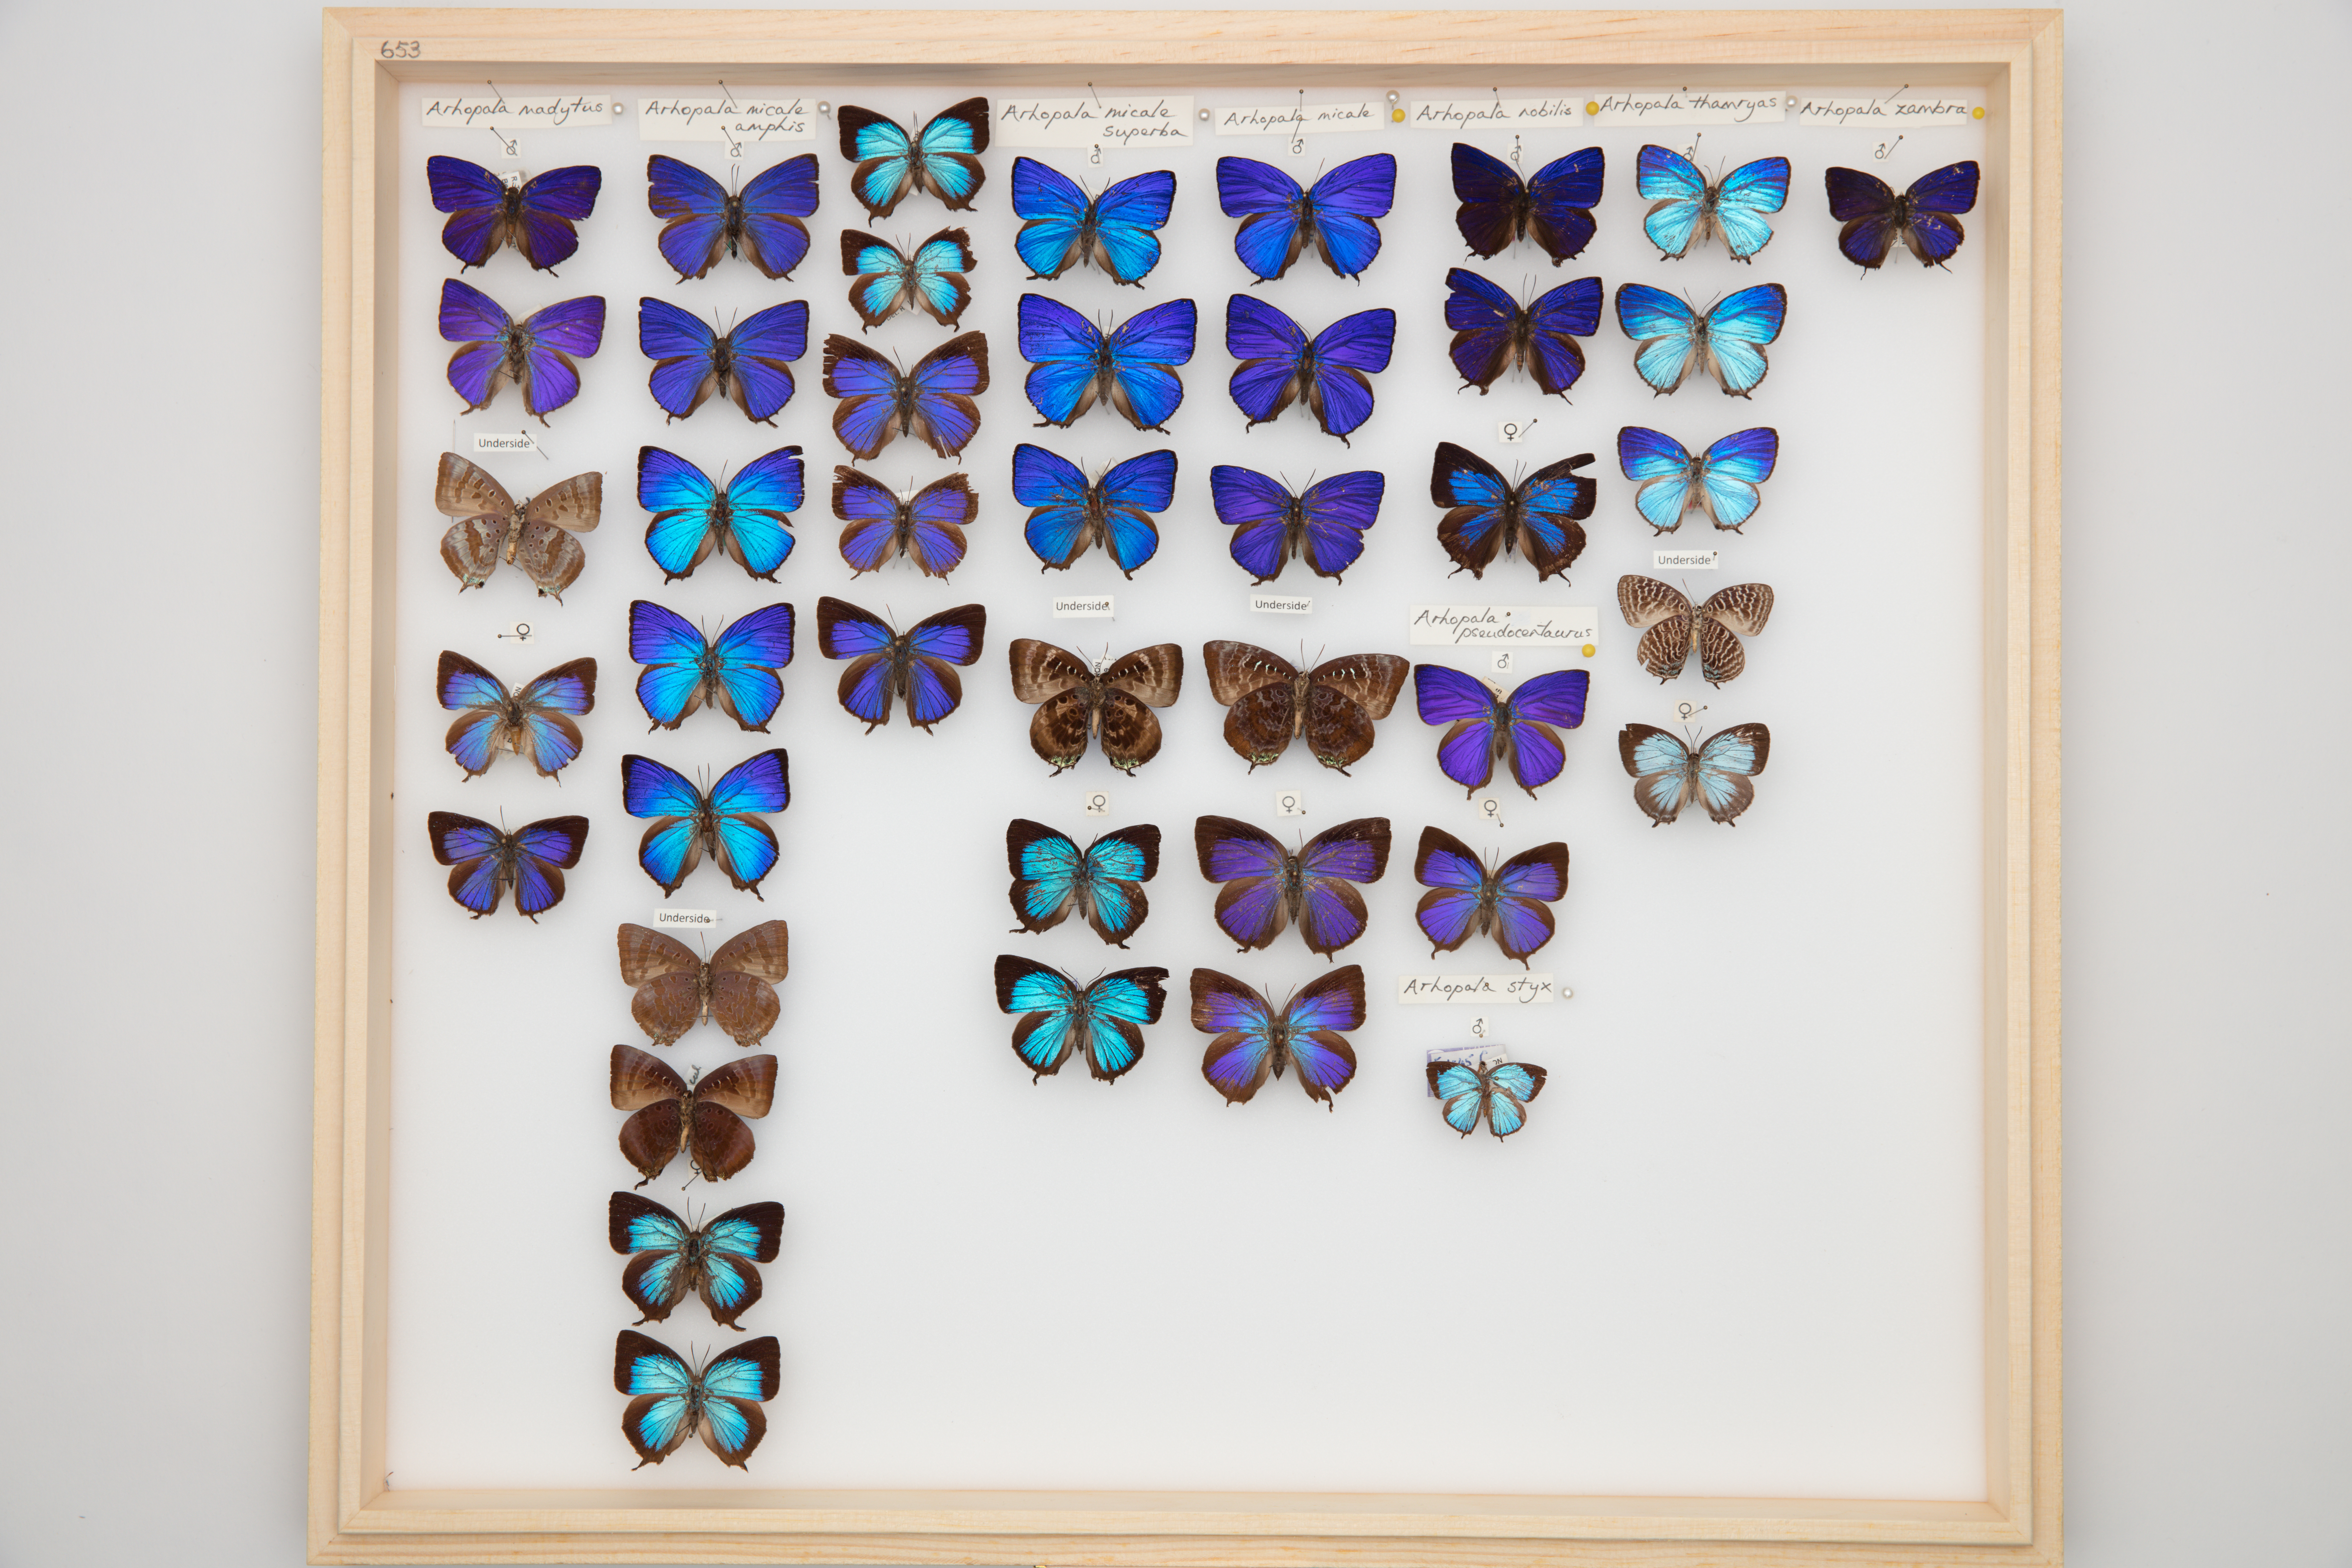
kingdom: Animalia
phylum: Arthropoda
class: Insecta
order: Lepidoptera
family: Lycaenidae
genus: Arhopala
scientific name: Arhopala micale
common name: Shining oak-blue
